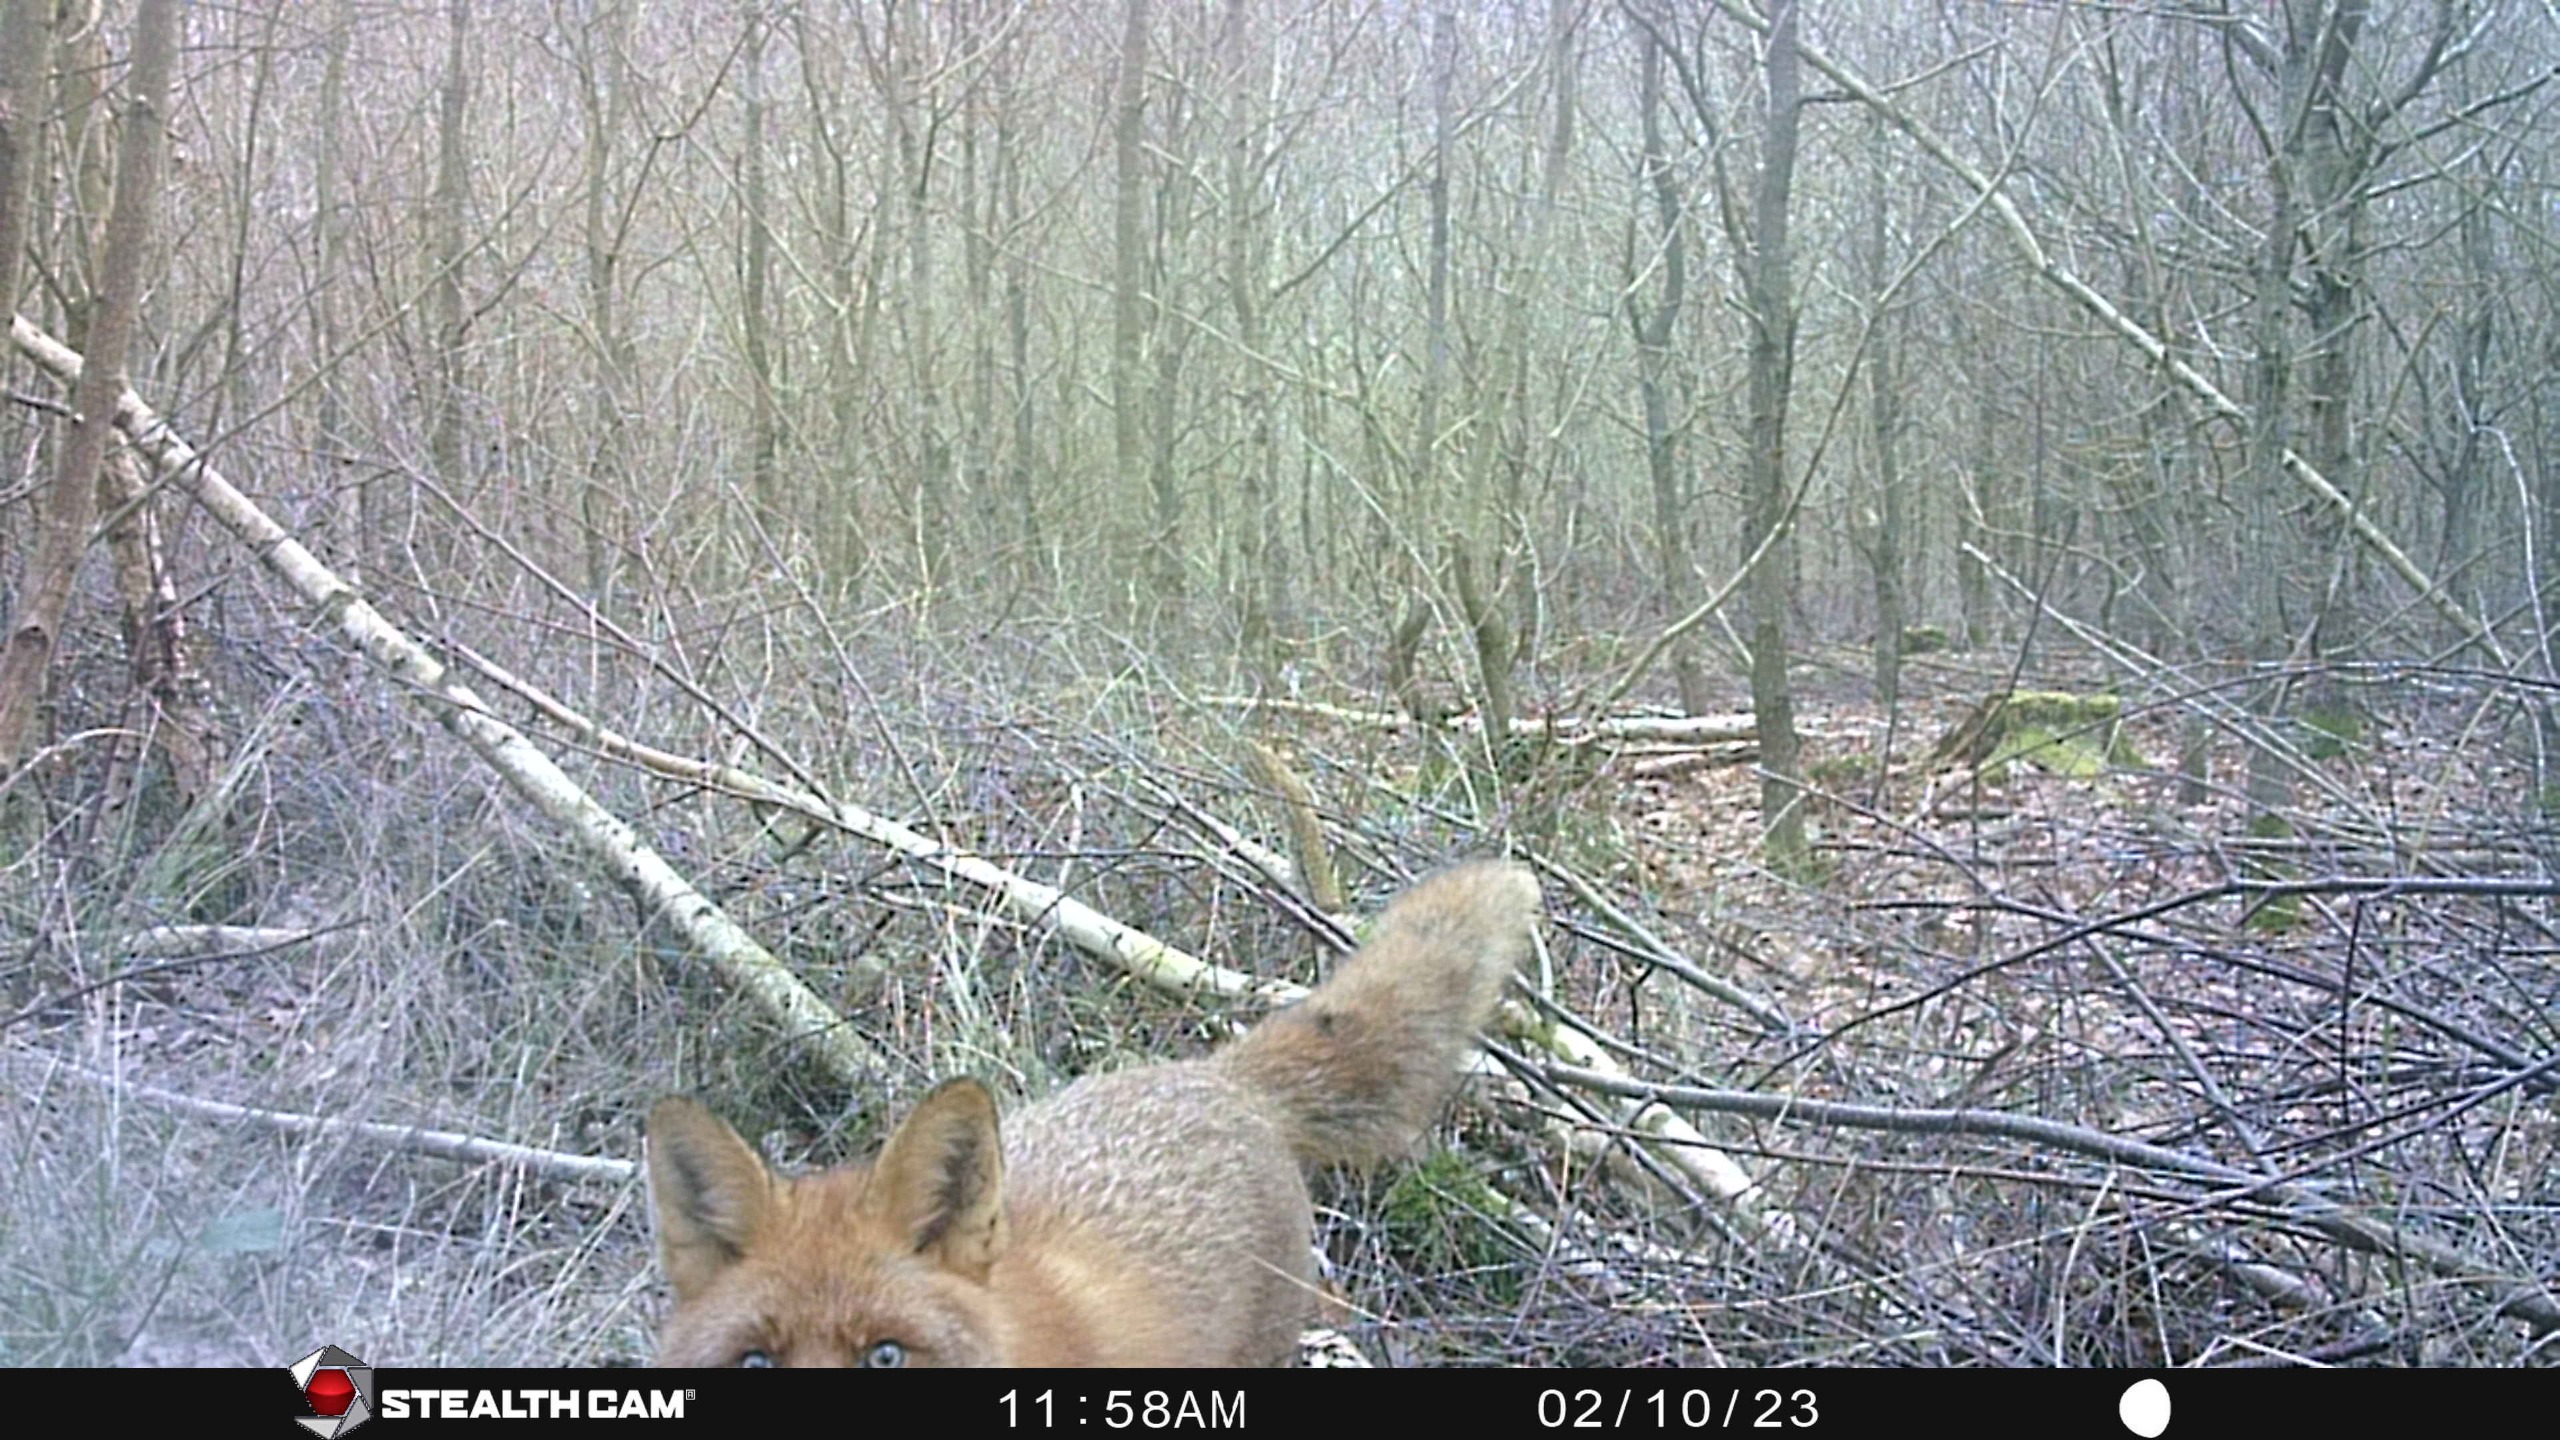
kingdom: Animalia
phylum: Chordata
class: Mammalia
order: Carnivora
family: Canidae
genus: Vulpes
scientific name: Vulpes vulpes
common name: Ræv
